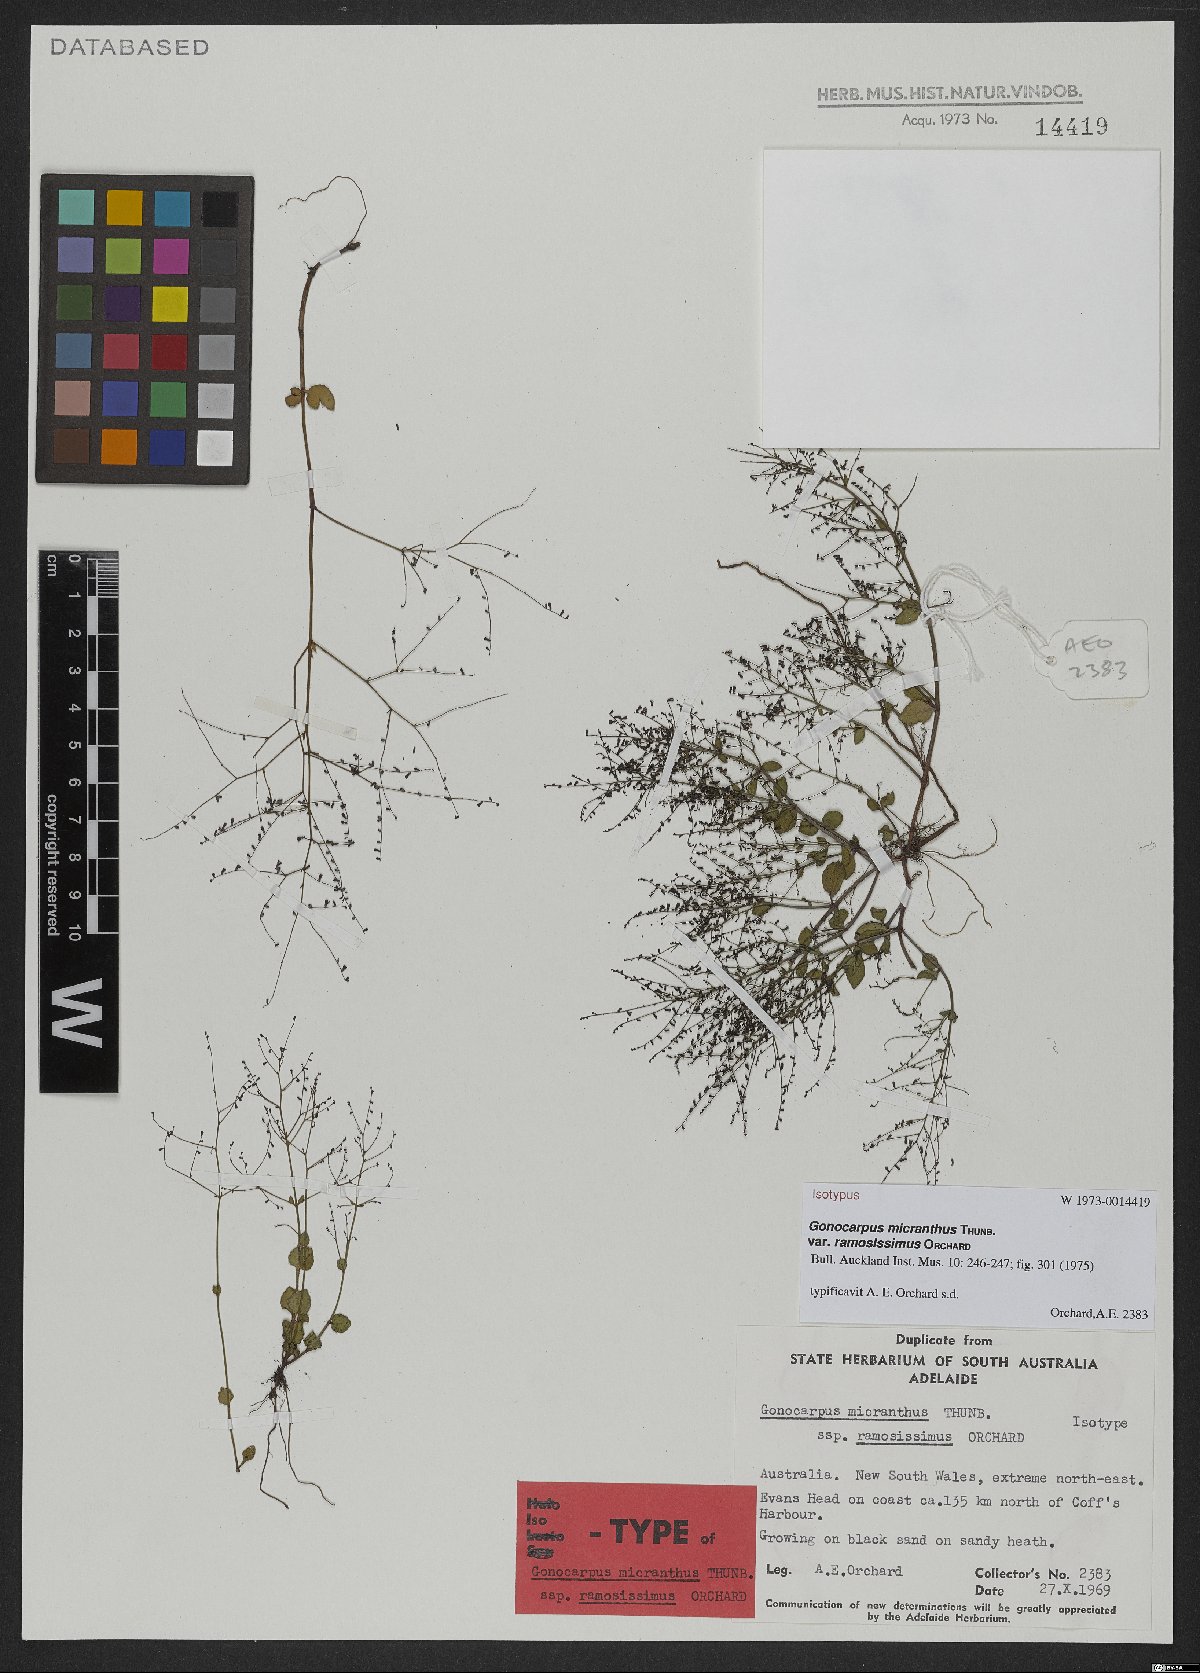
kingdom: Plantae
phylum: Tracheophyta
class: Magnoliopsida
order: Saxifragales
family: Haloragaceae
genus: Gonocarpus
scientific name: Gonocarpus micranthus
